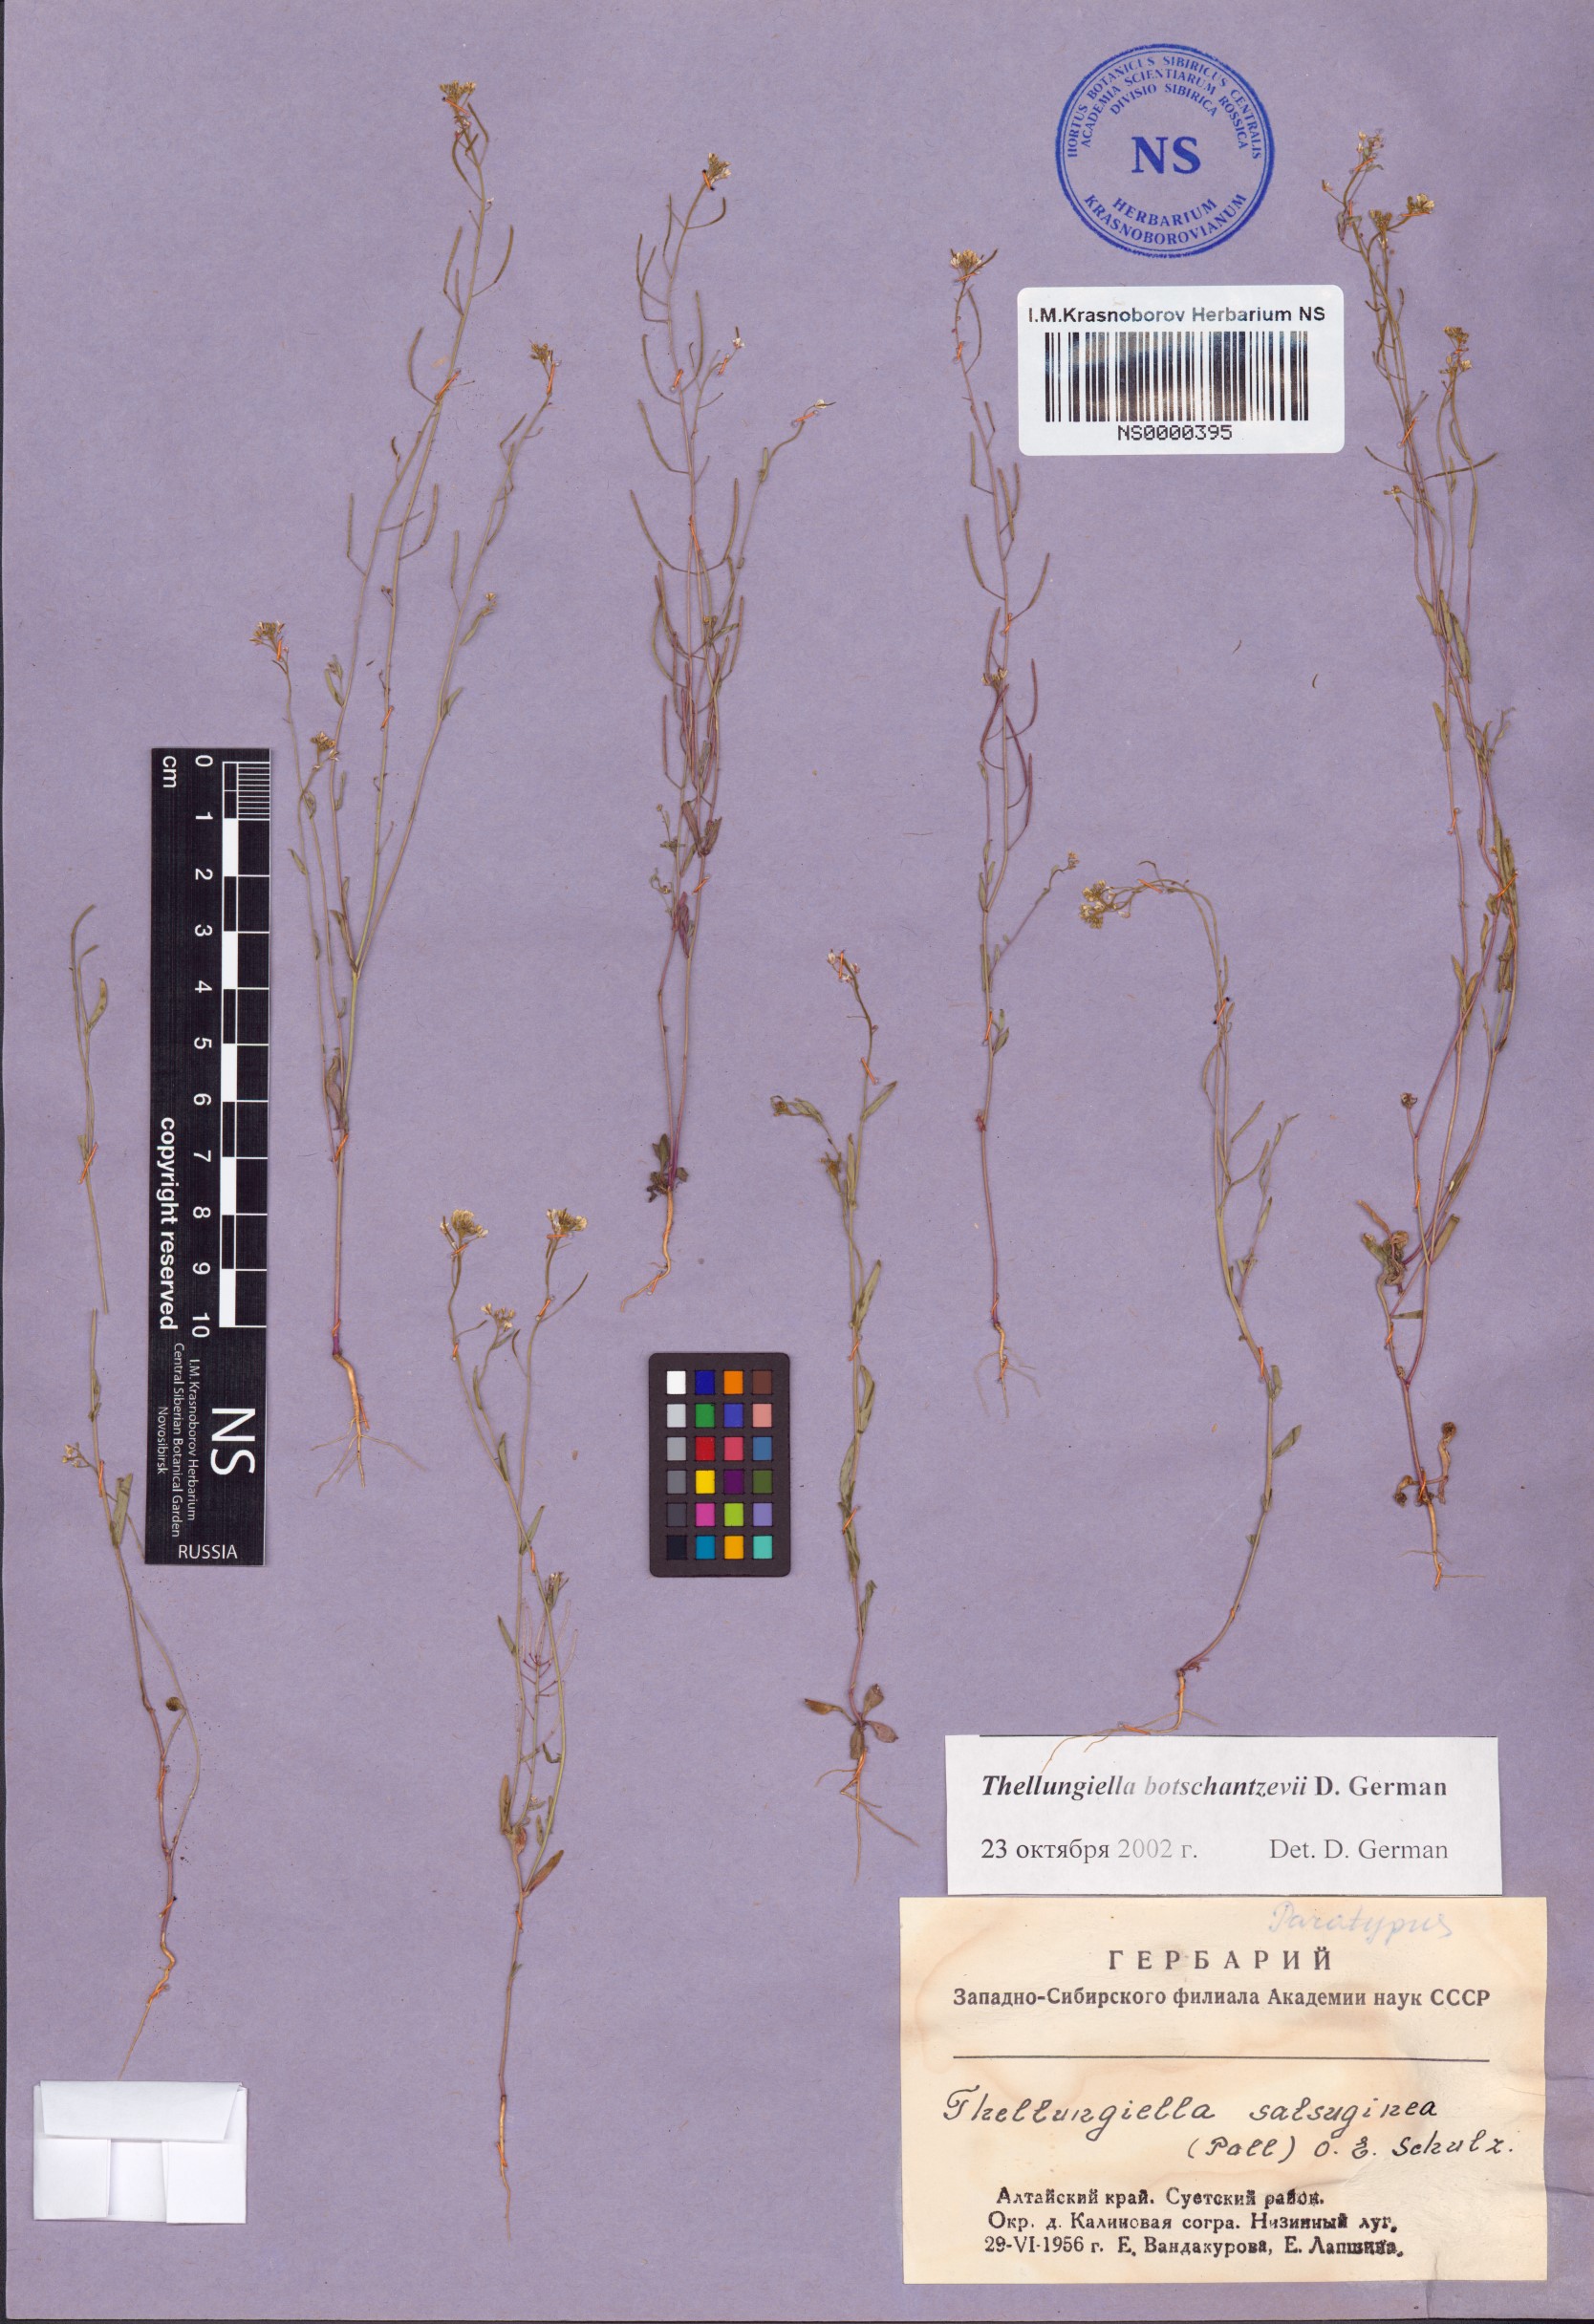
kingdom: Plantae
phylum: Tracheophyta
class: Magnoliopsida
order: Brassicales
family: Brassicaceae
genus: Eutrema
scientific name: Eutrema botschantzevii
